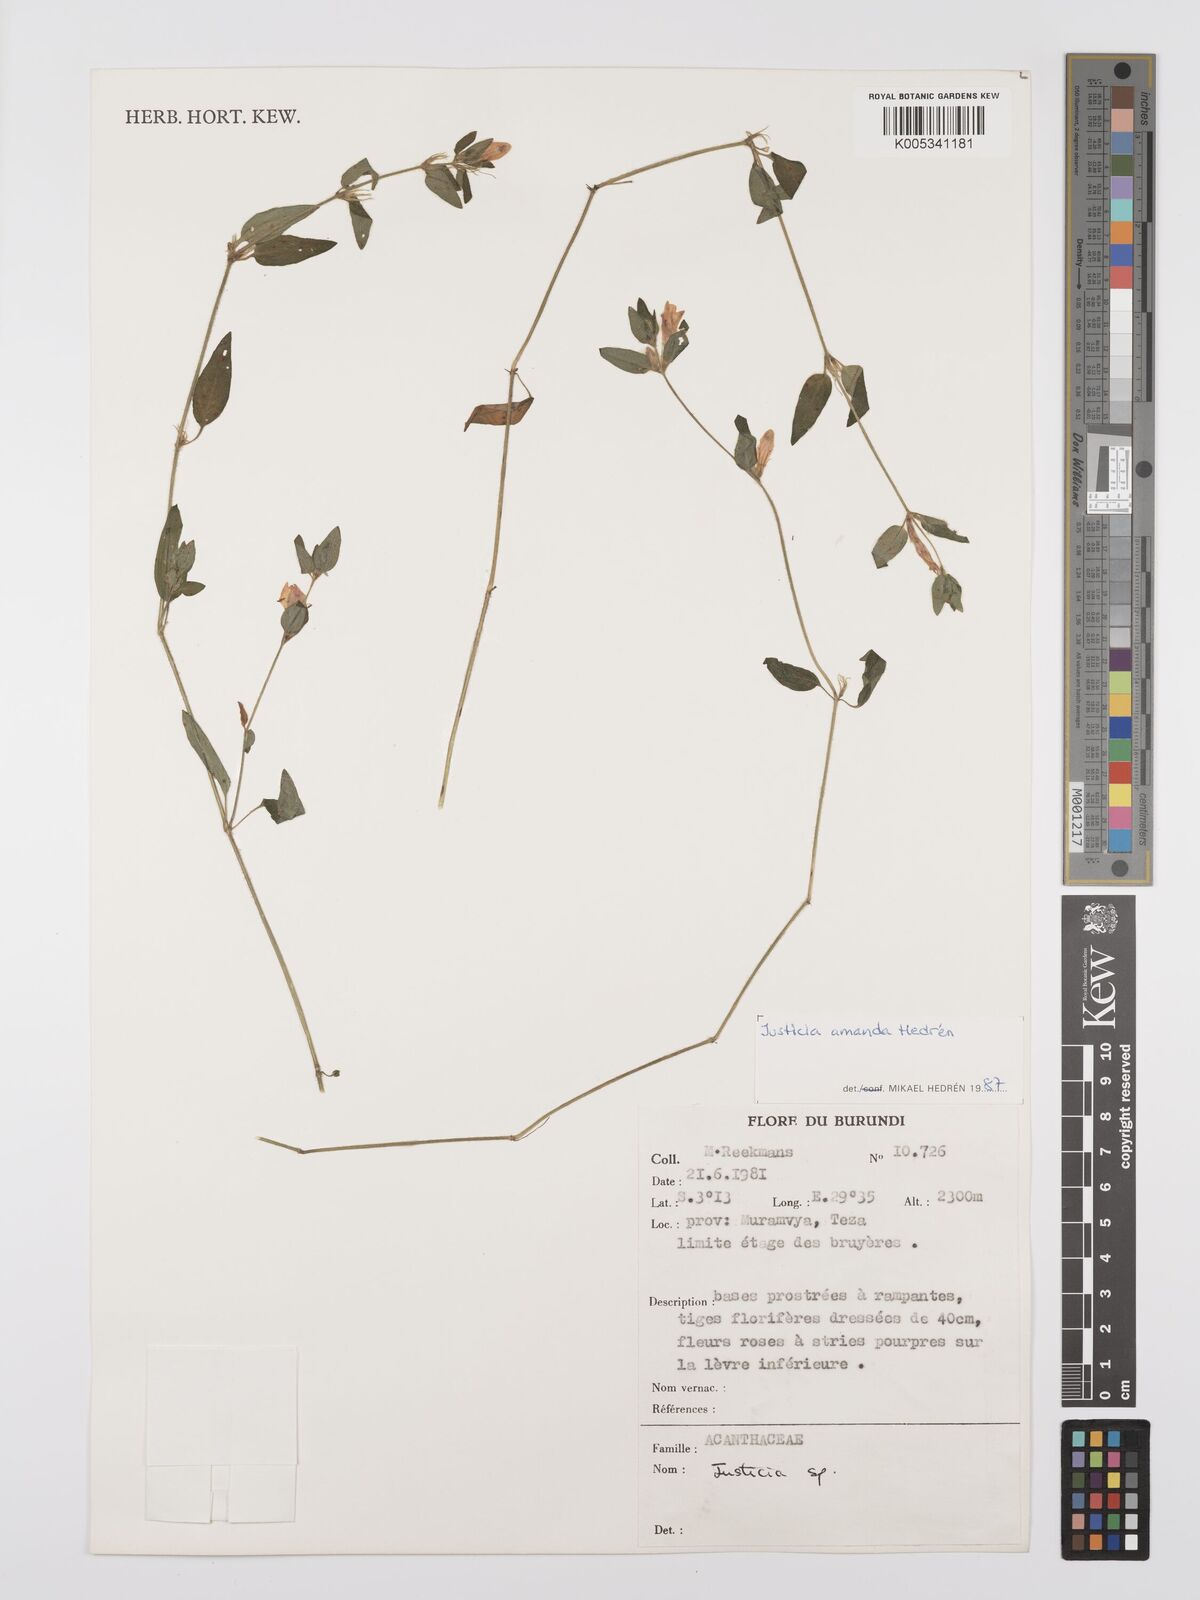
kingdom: Plantae
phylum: Tracheophyta
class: Magnoliopsida
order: Lamiales
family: Acanthaceae
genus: Justicia
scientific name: Justicia amanda
